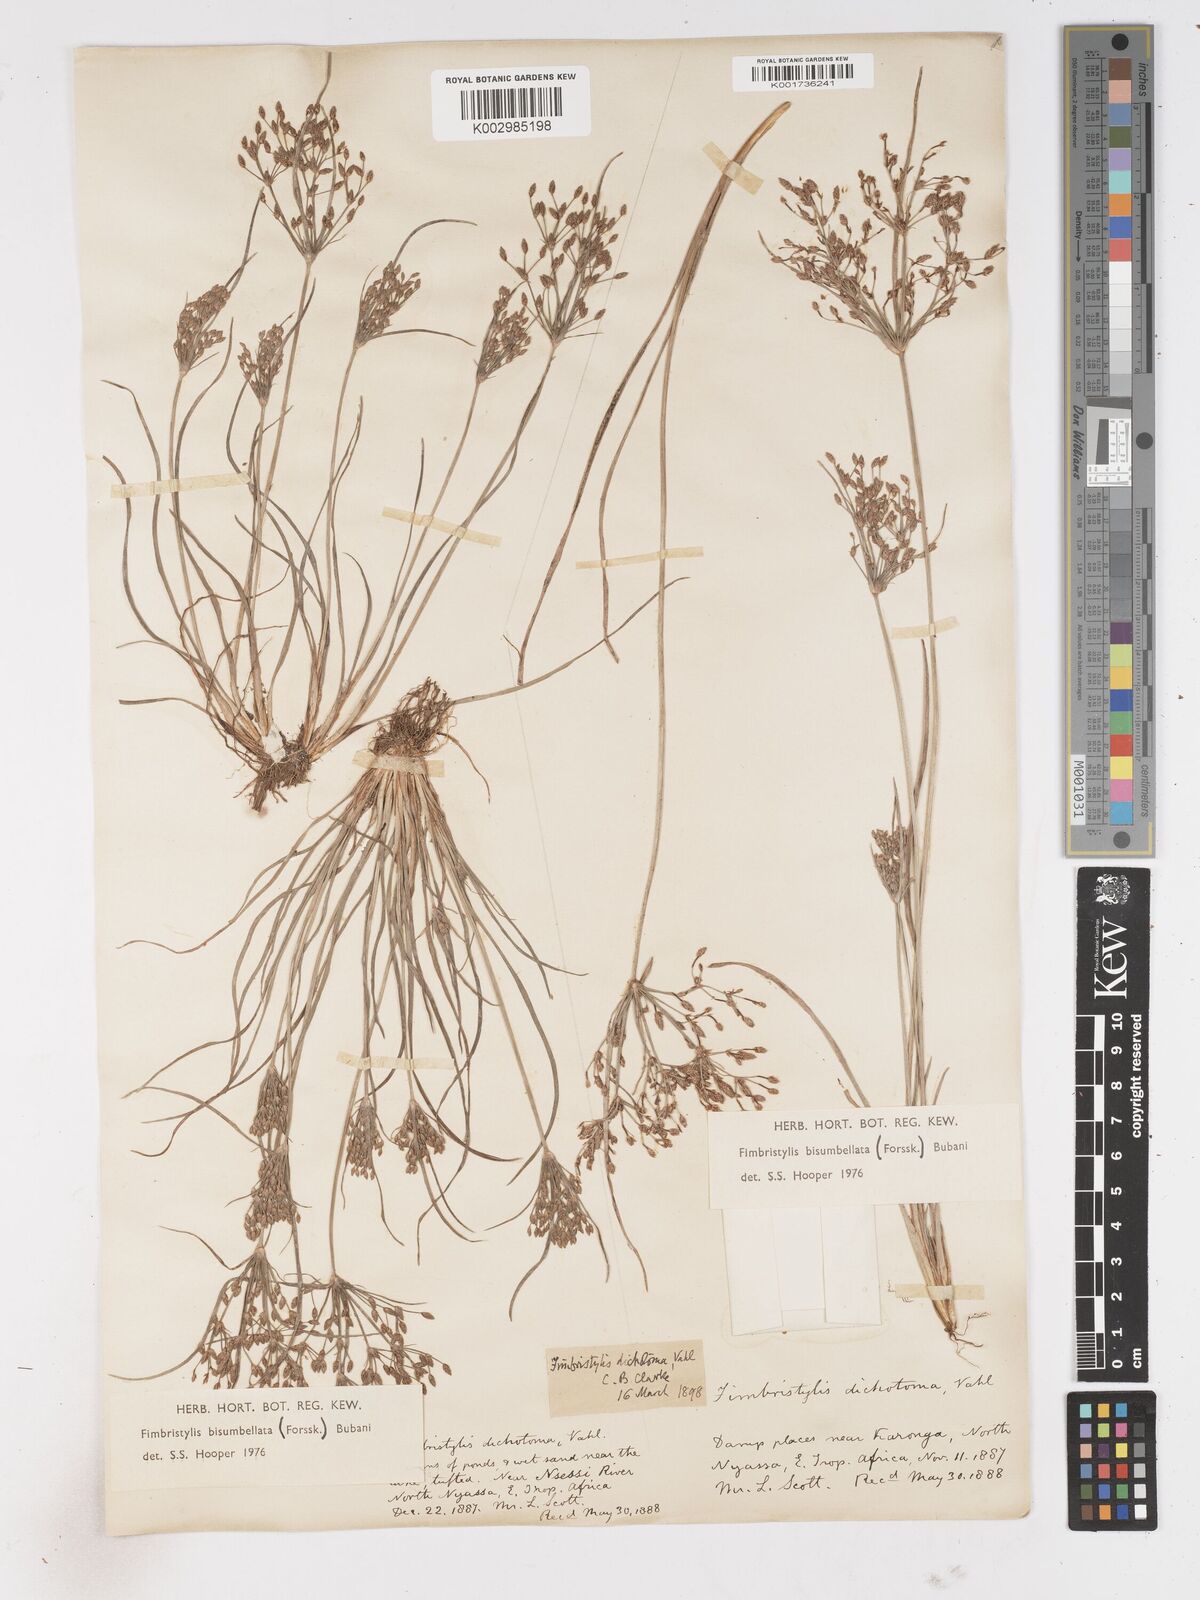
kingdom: Plantae
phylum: Tracheophyta
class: Liliopsida
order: Poales
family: Cyperaceae
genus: Fimbristylis
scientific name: Fimbristylis bisumbellata
